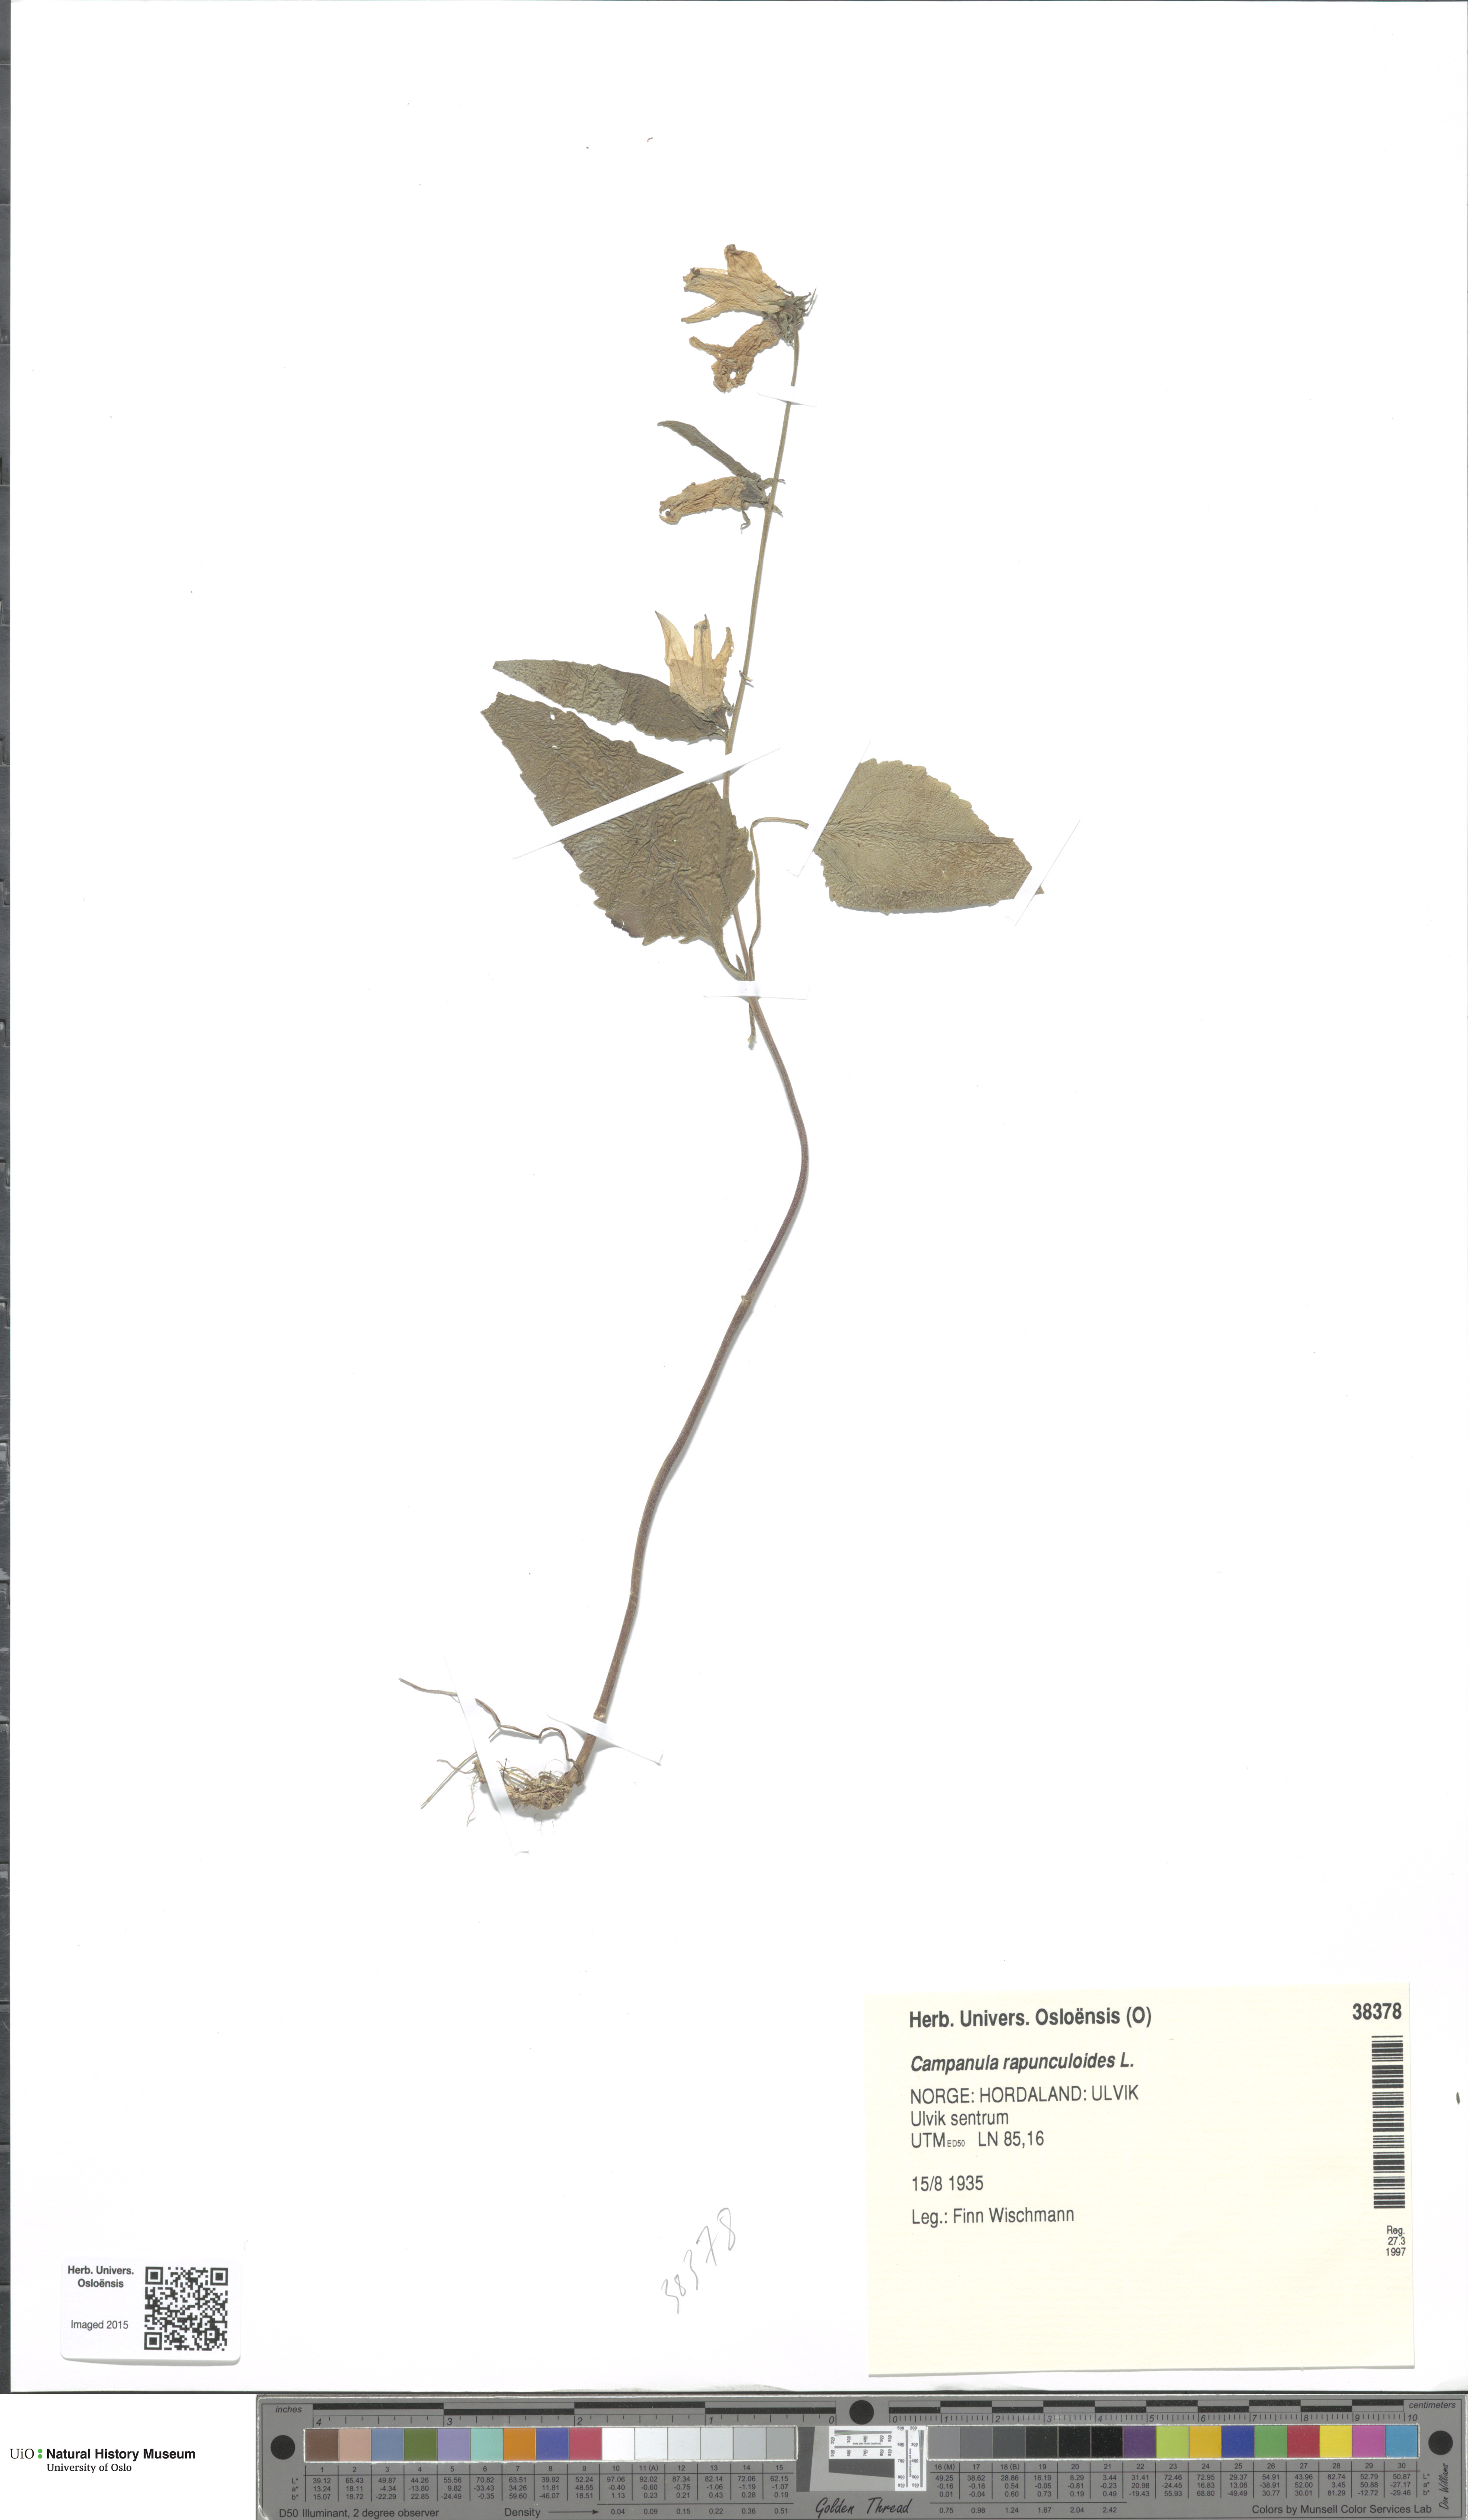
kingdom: Plantae
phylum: Tracheophyta
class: Magnoliopsida
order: Asterales
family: Campanulaceae
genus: Campanula
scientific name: Campanula rapunculoides
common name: Creeping bellflower
